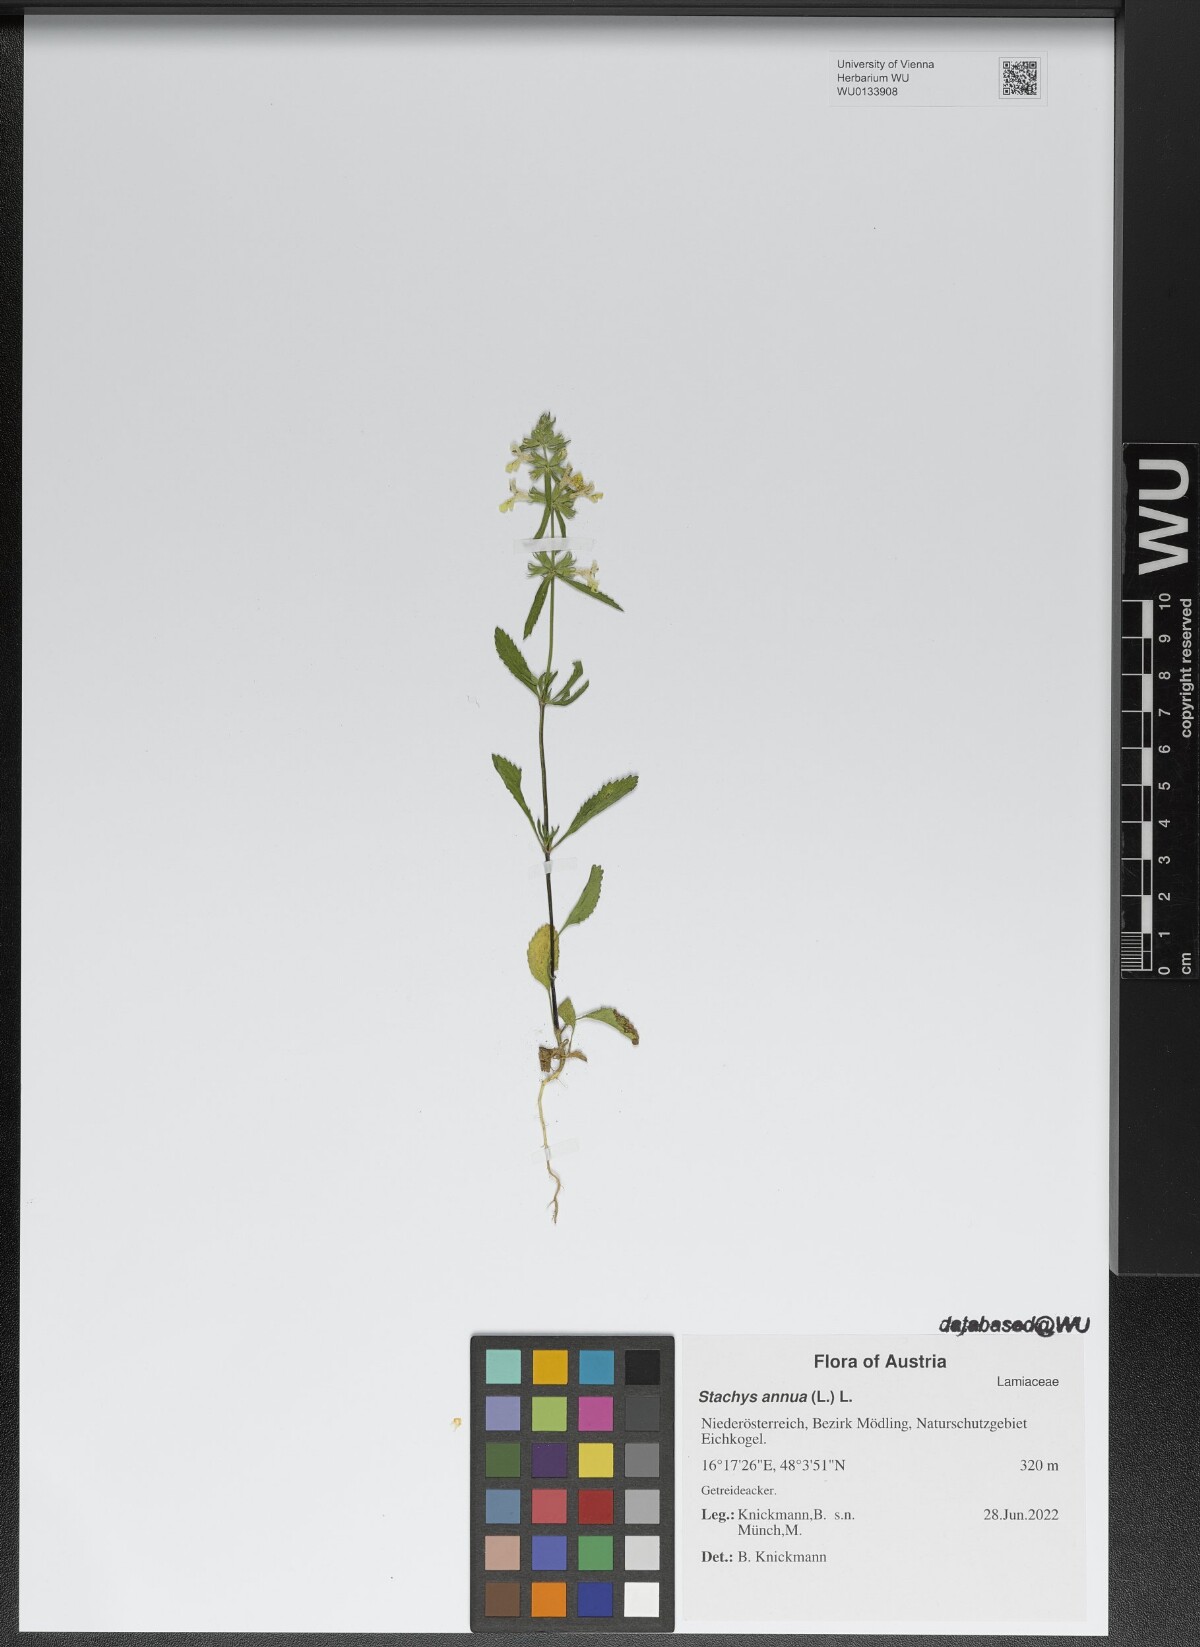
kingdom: Plantae
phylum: Tracheophyta
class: Magnoliopsida
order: Lamiales
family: Lamiaceae
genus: Stachys
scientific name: Stachys annua
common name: Annual yellow-woundwort
